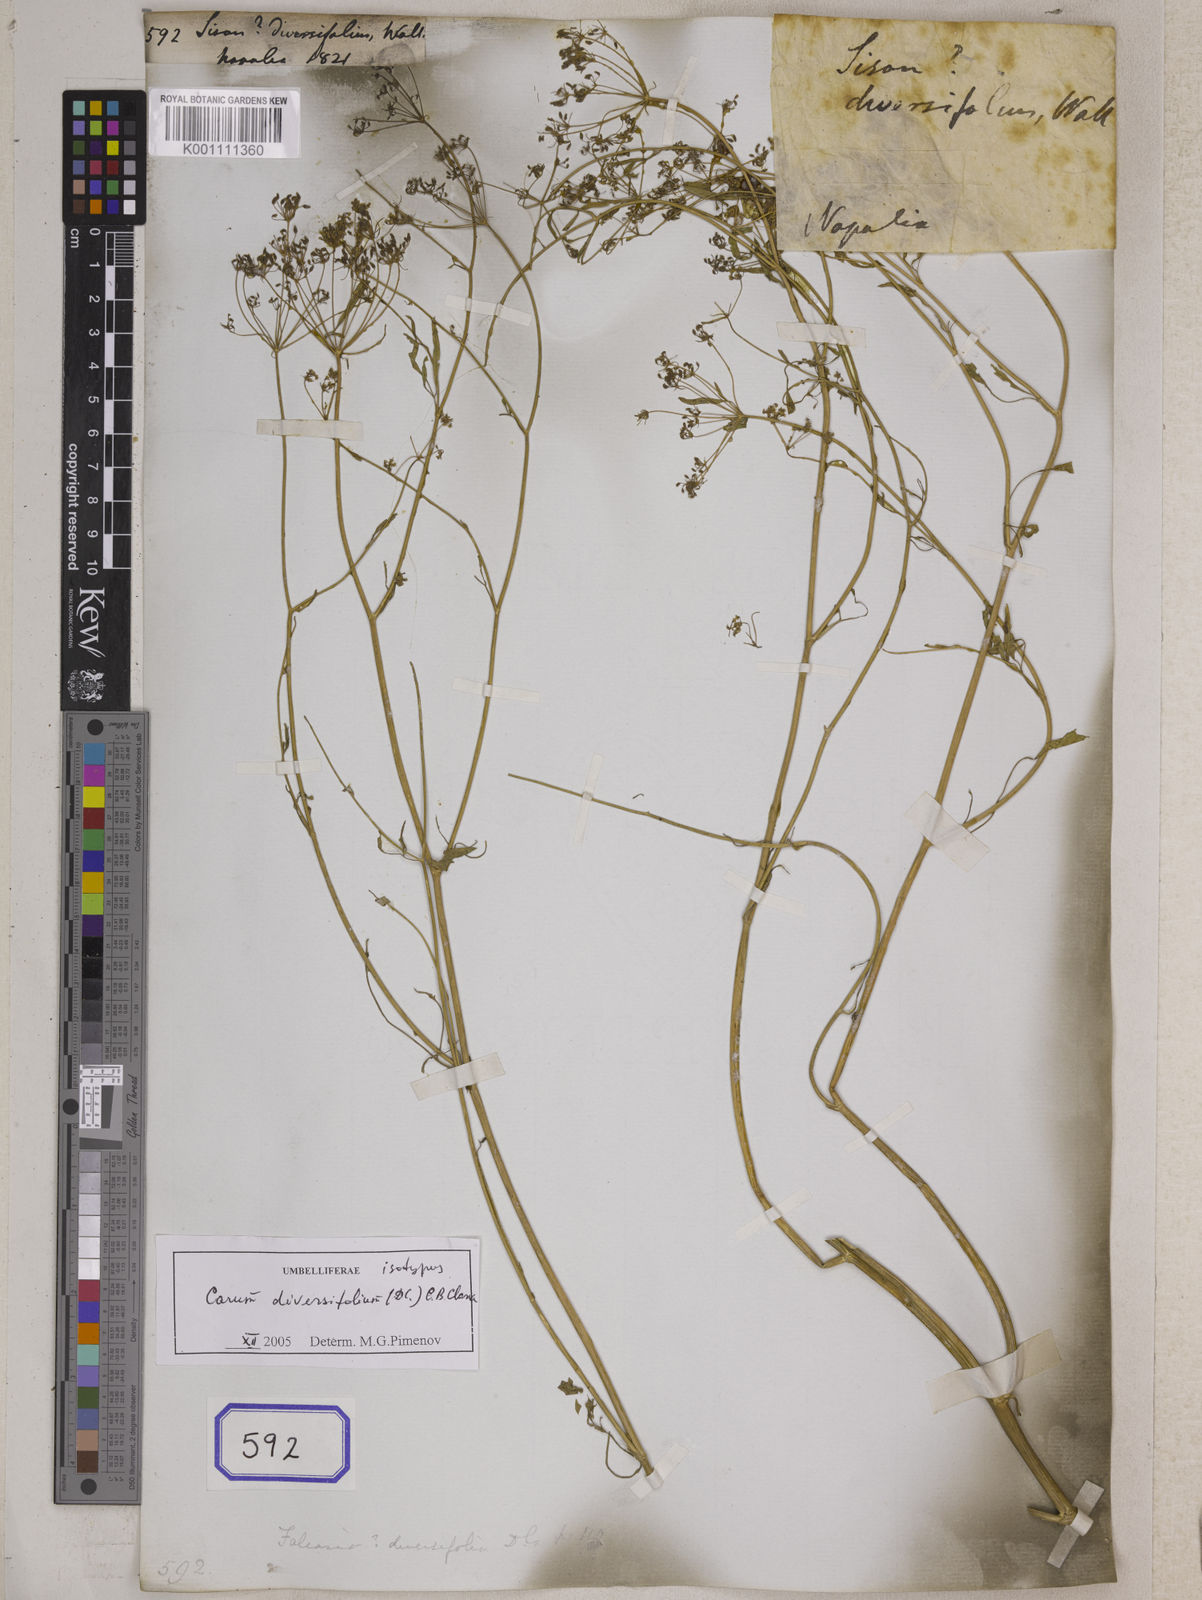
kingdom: Plantae
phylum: Tracheophyta
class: Magnoliopsida
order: Apiales
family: Apiaceae
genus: Sison
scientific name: Sison
